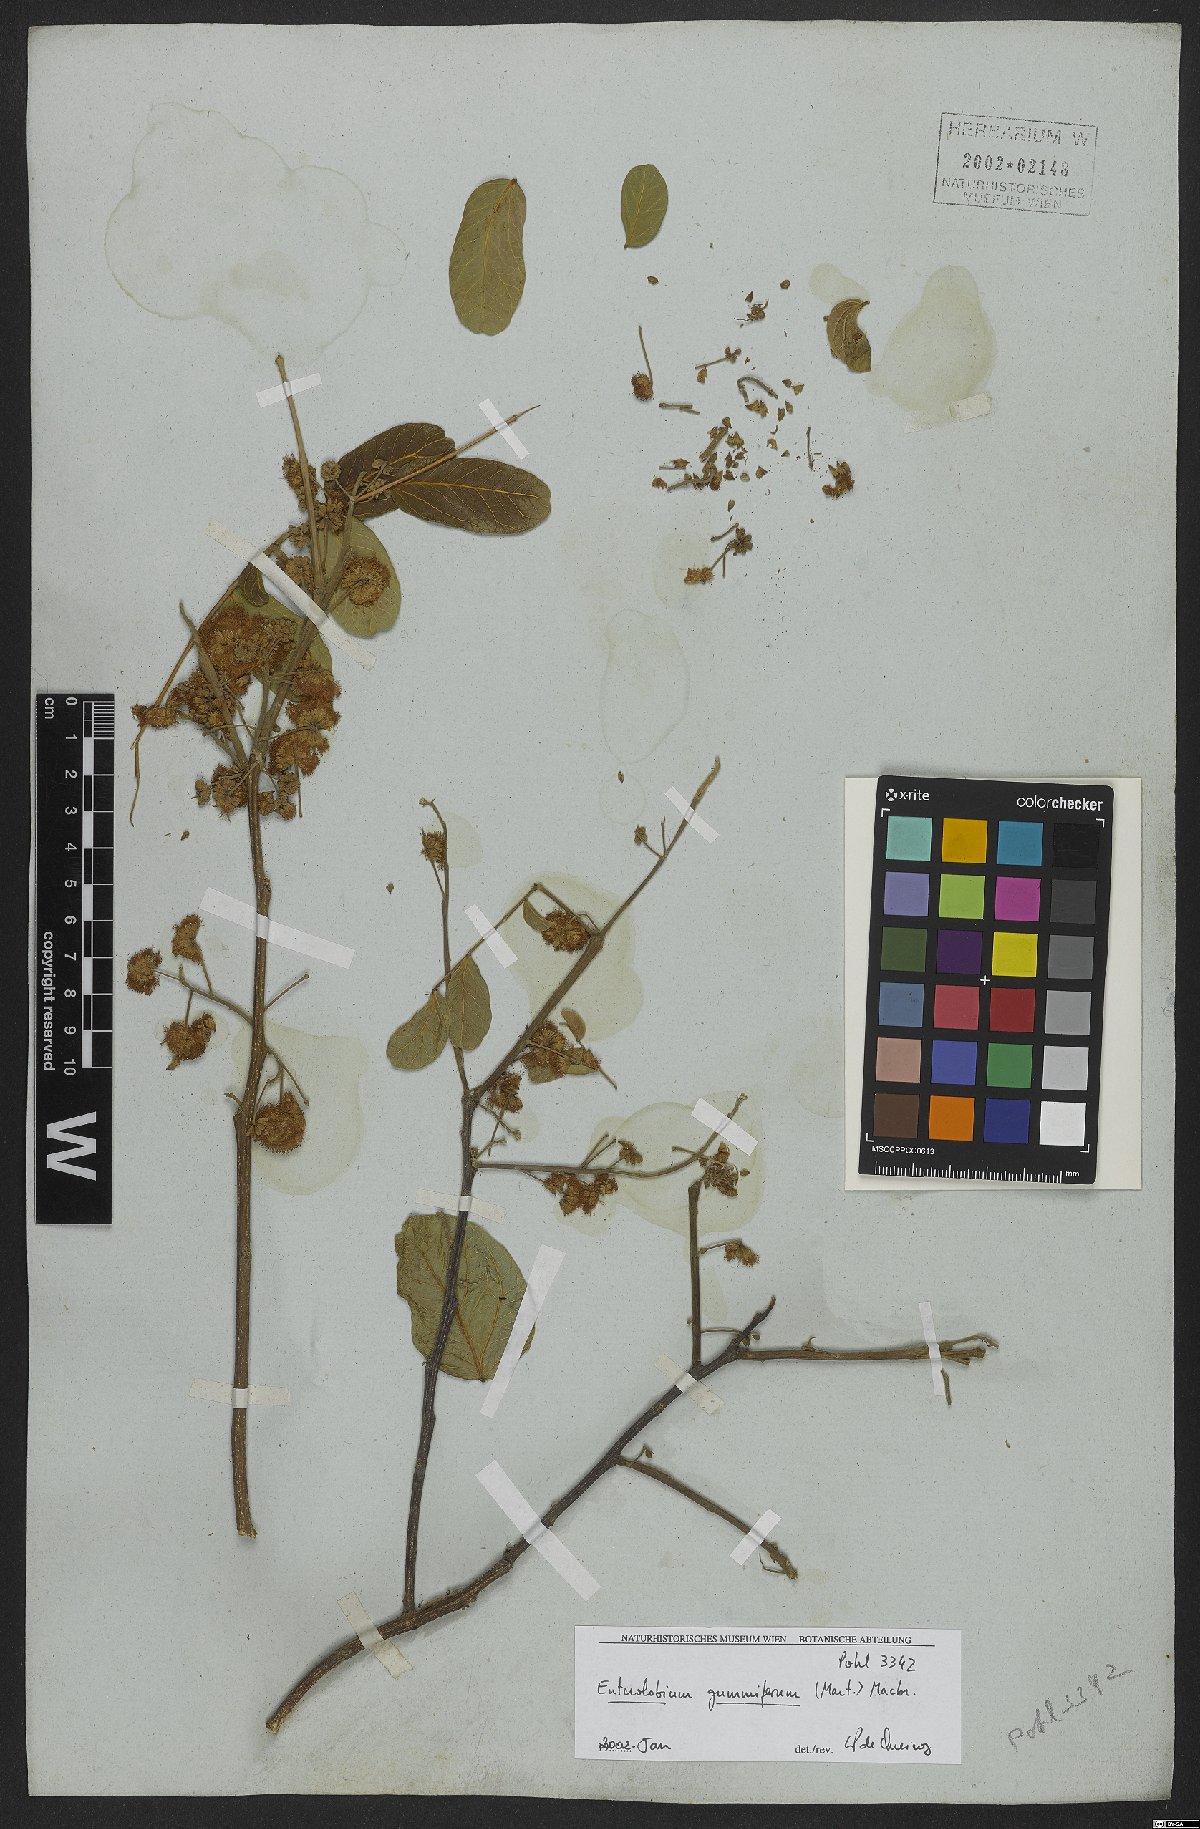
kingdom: Plantae
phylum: Tracheophyta
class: Magnoliopsida
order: Fabales
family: Fabaceae
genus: Enterolobium
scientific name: Enterolobium gummiferum
